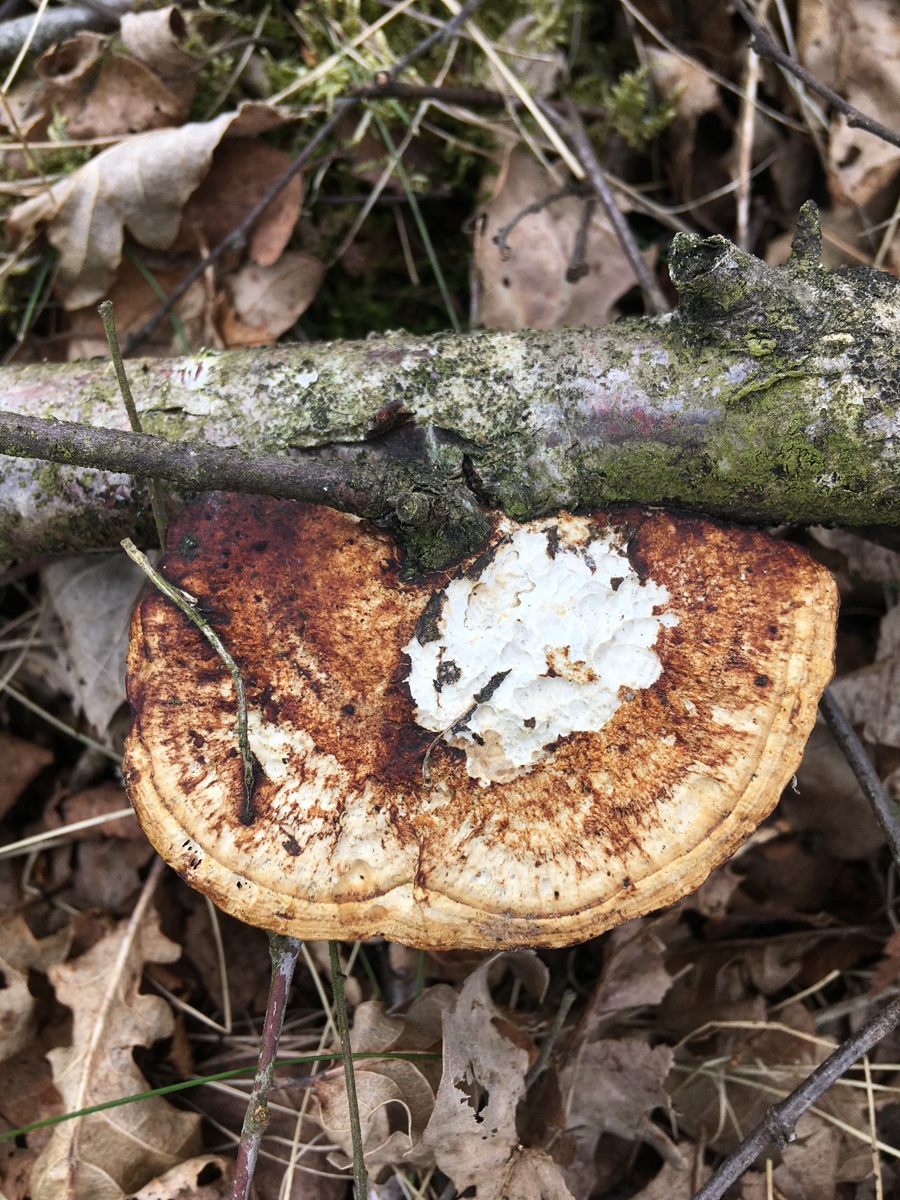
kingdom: Fungi
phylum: Basidiomycota
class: Agaricomycetes
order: Polyporales
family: Polyporaceae
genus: Daedaleopsis
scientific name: Daedaleopsis confragosa
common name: rødmende læderporesvamp
